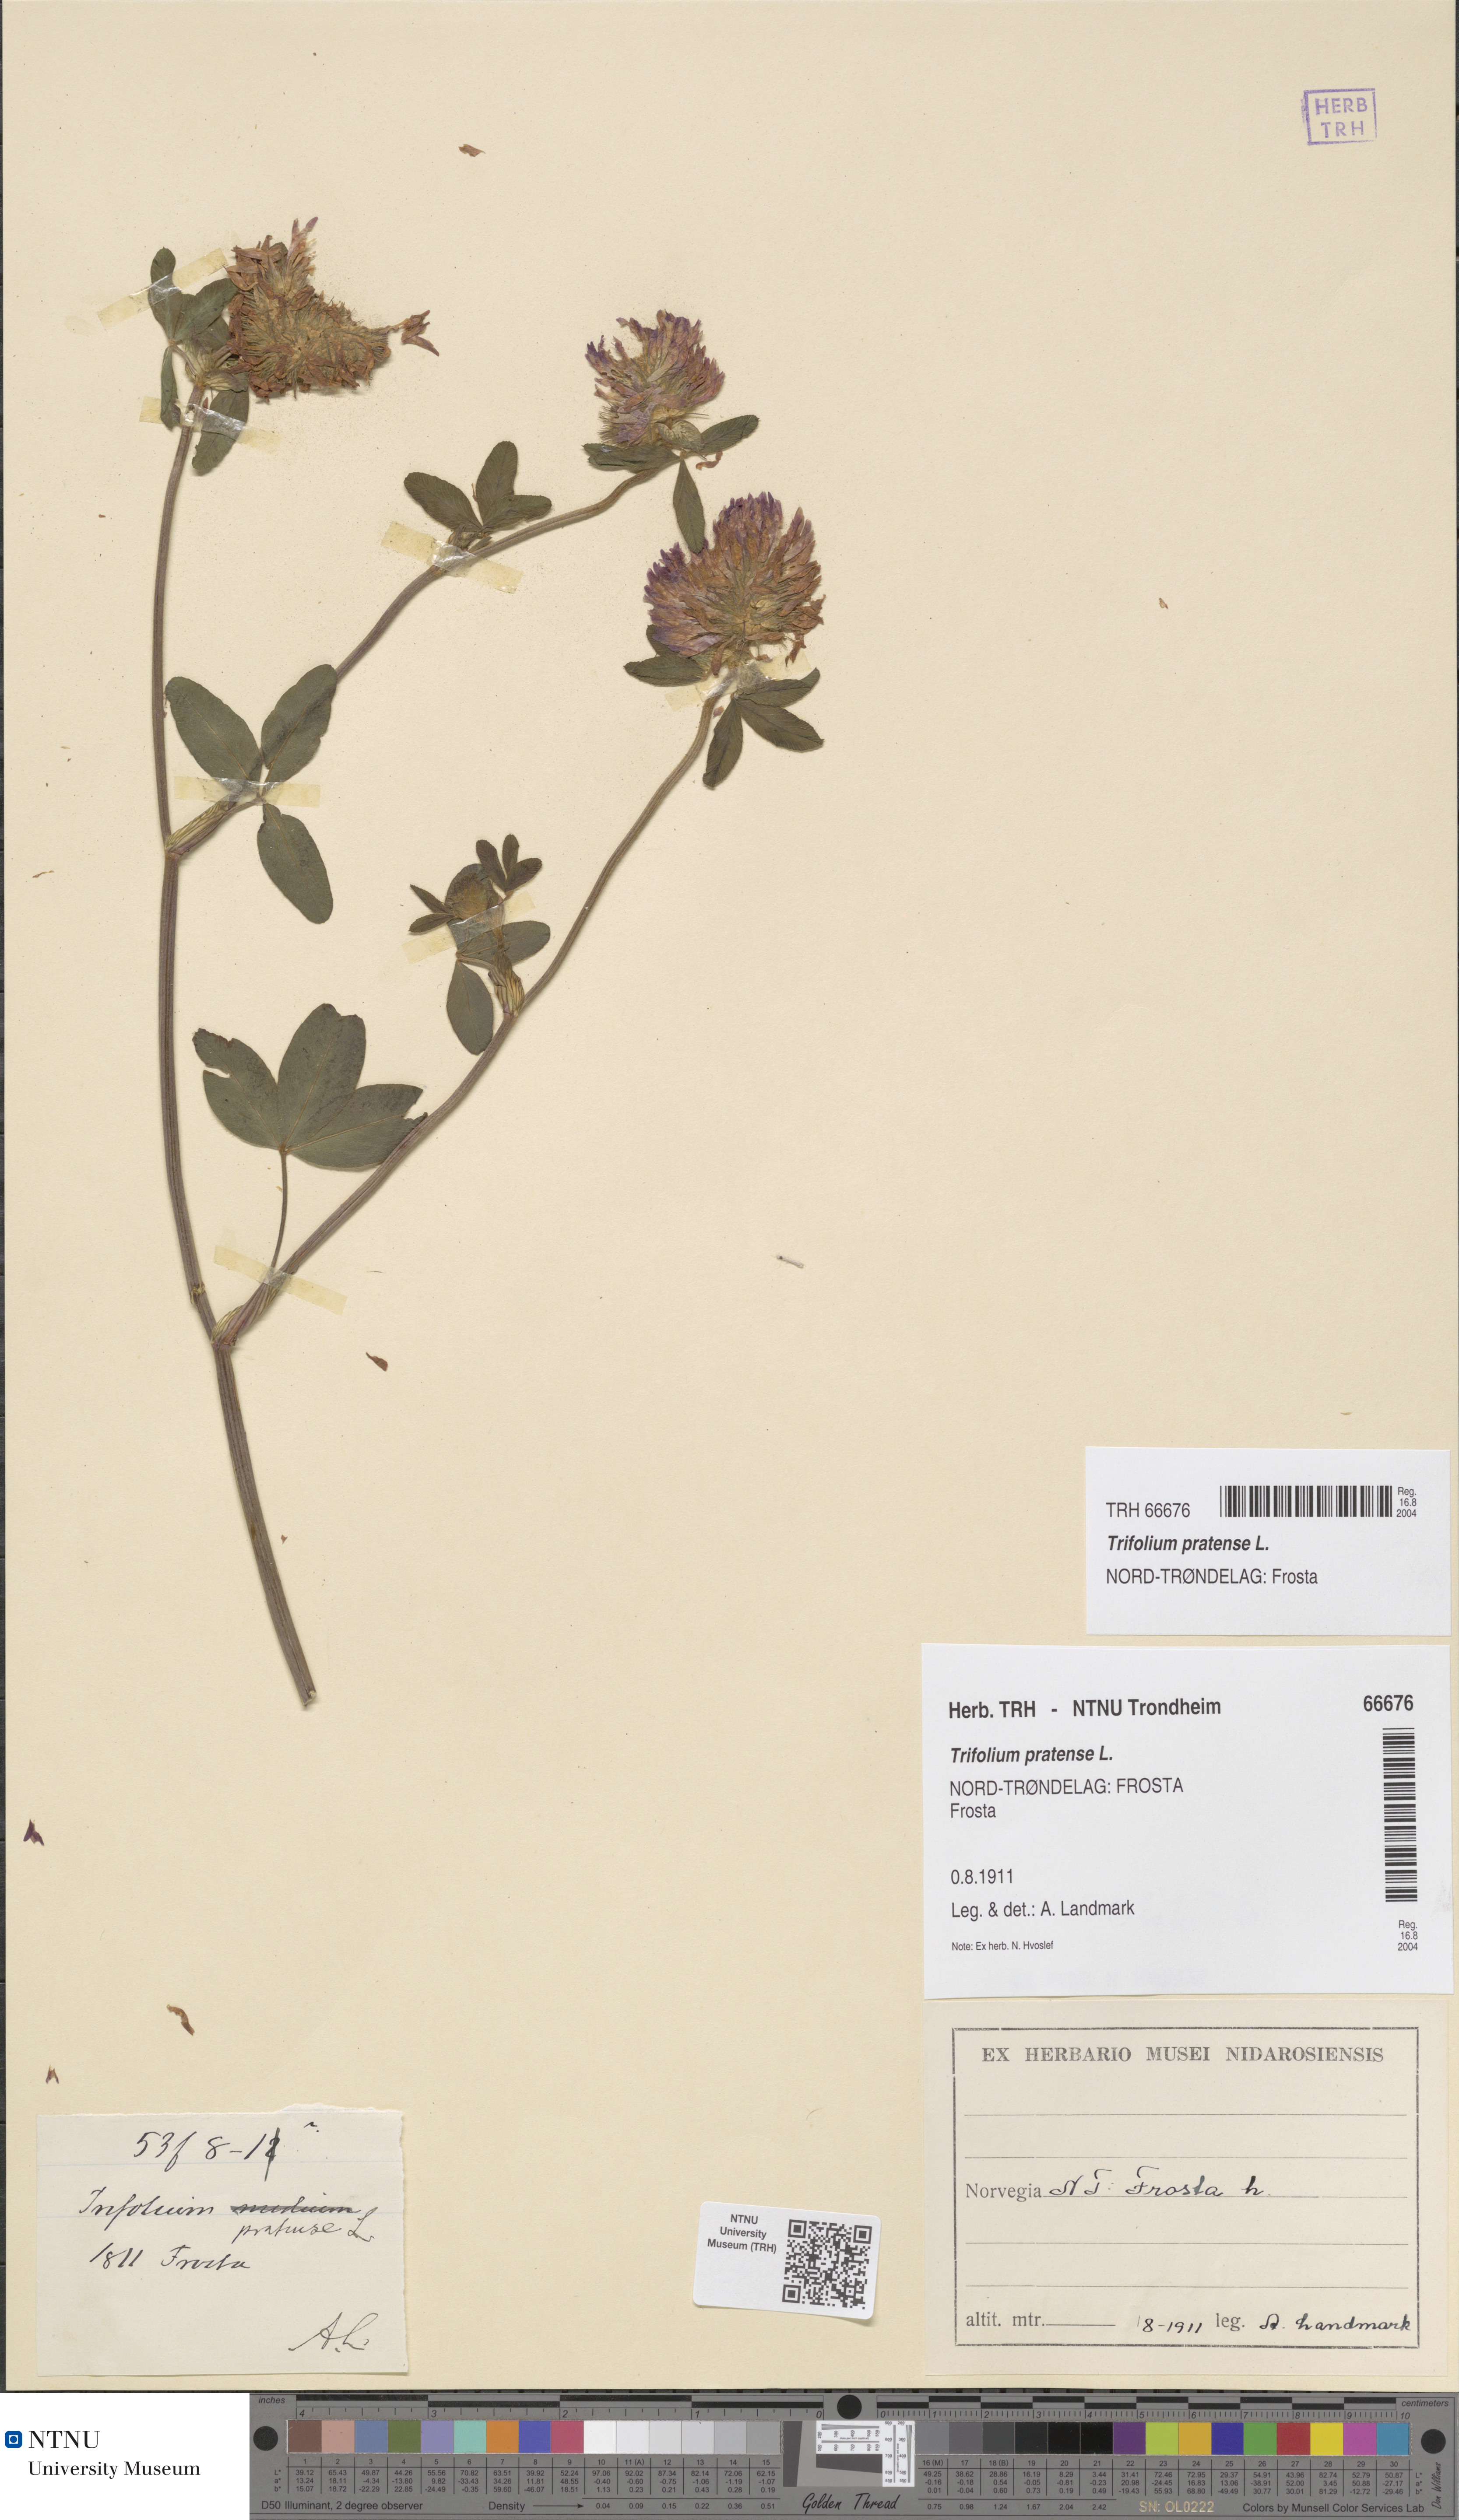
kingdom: Plantae
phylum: Tracheophyta
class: Magnoliopsida
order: Fabales
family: Fabaceae
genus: Trifolium
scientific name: Trifolium pratense
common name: Red clover
